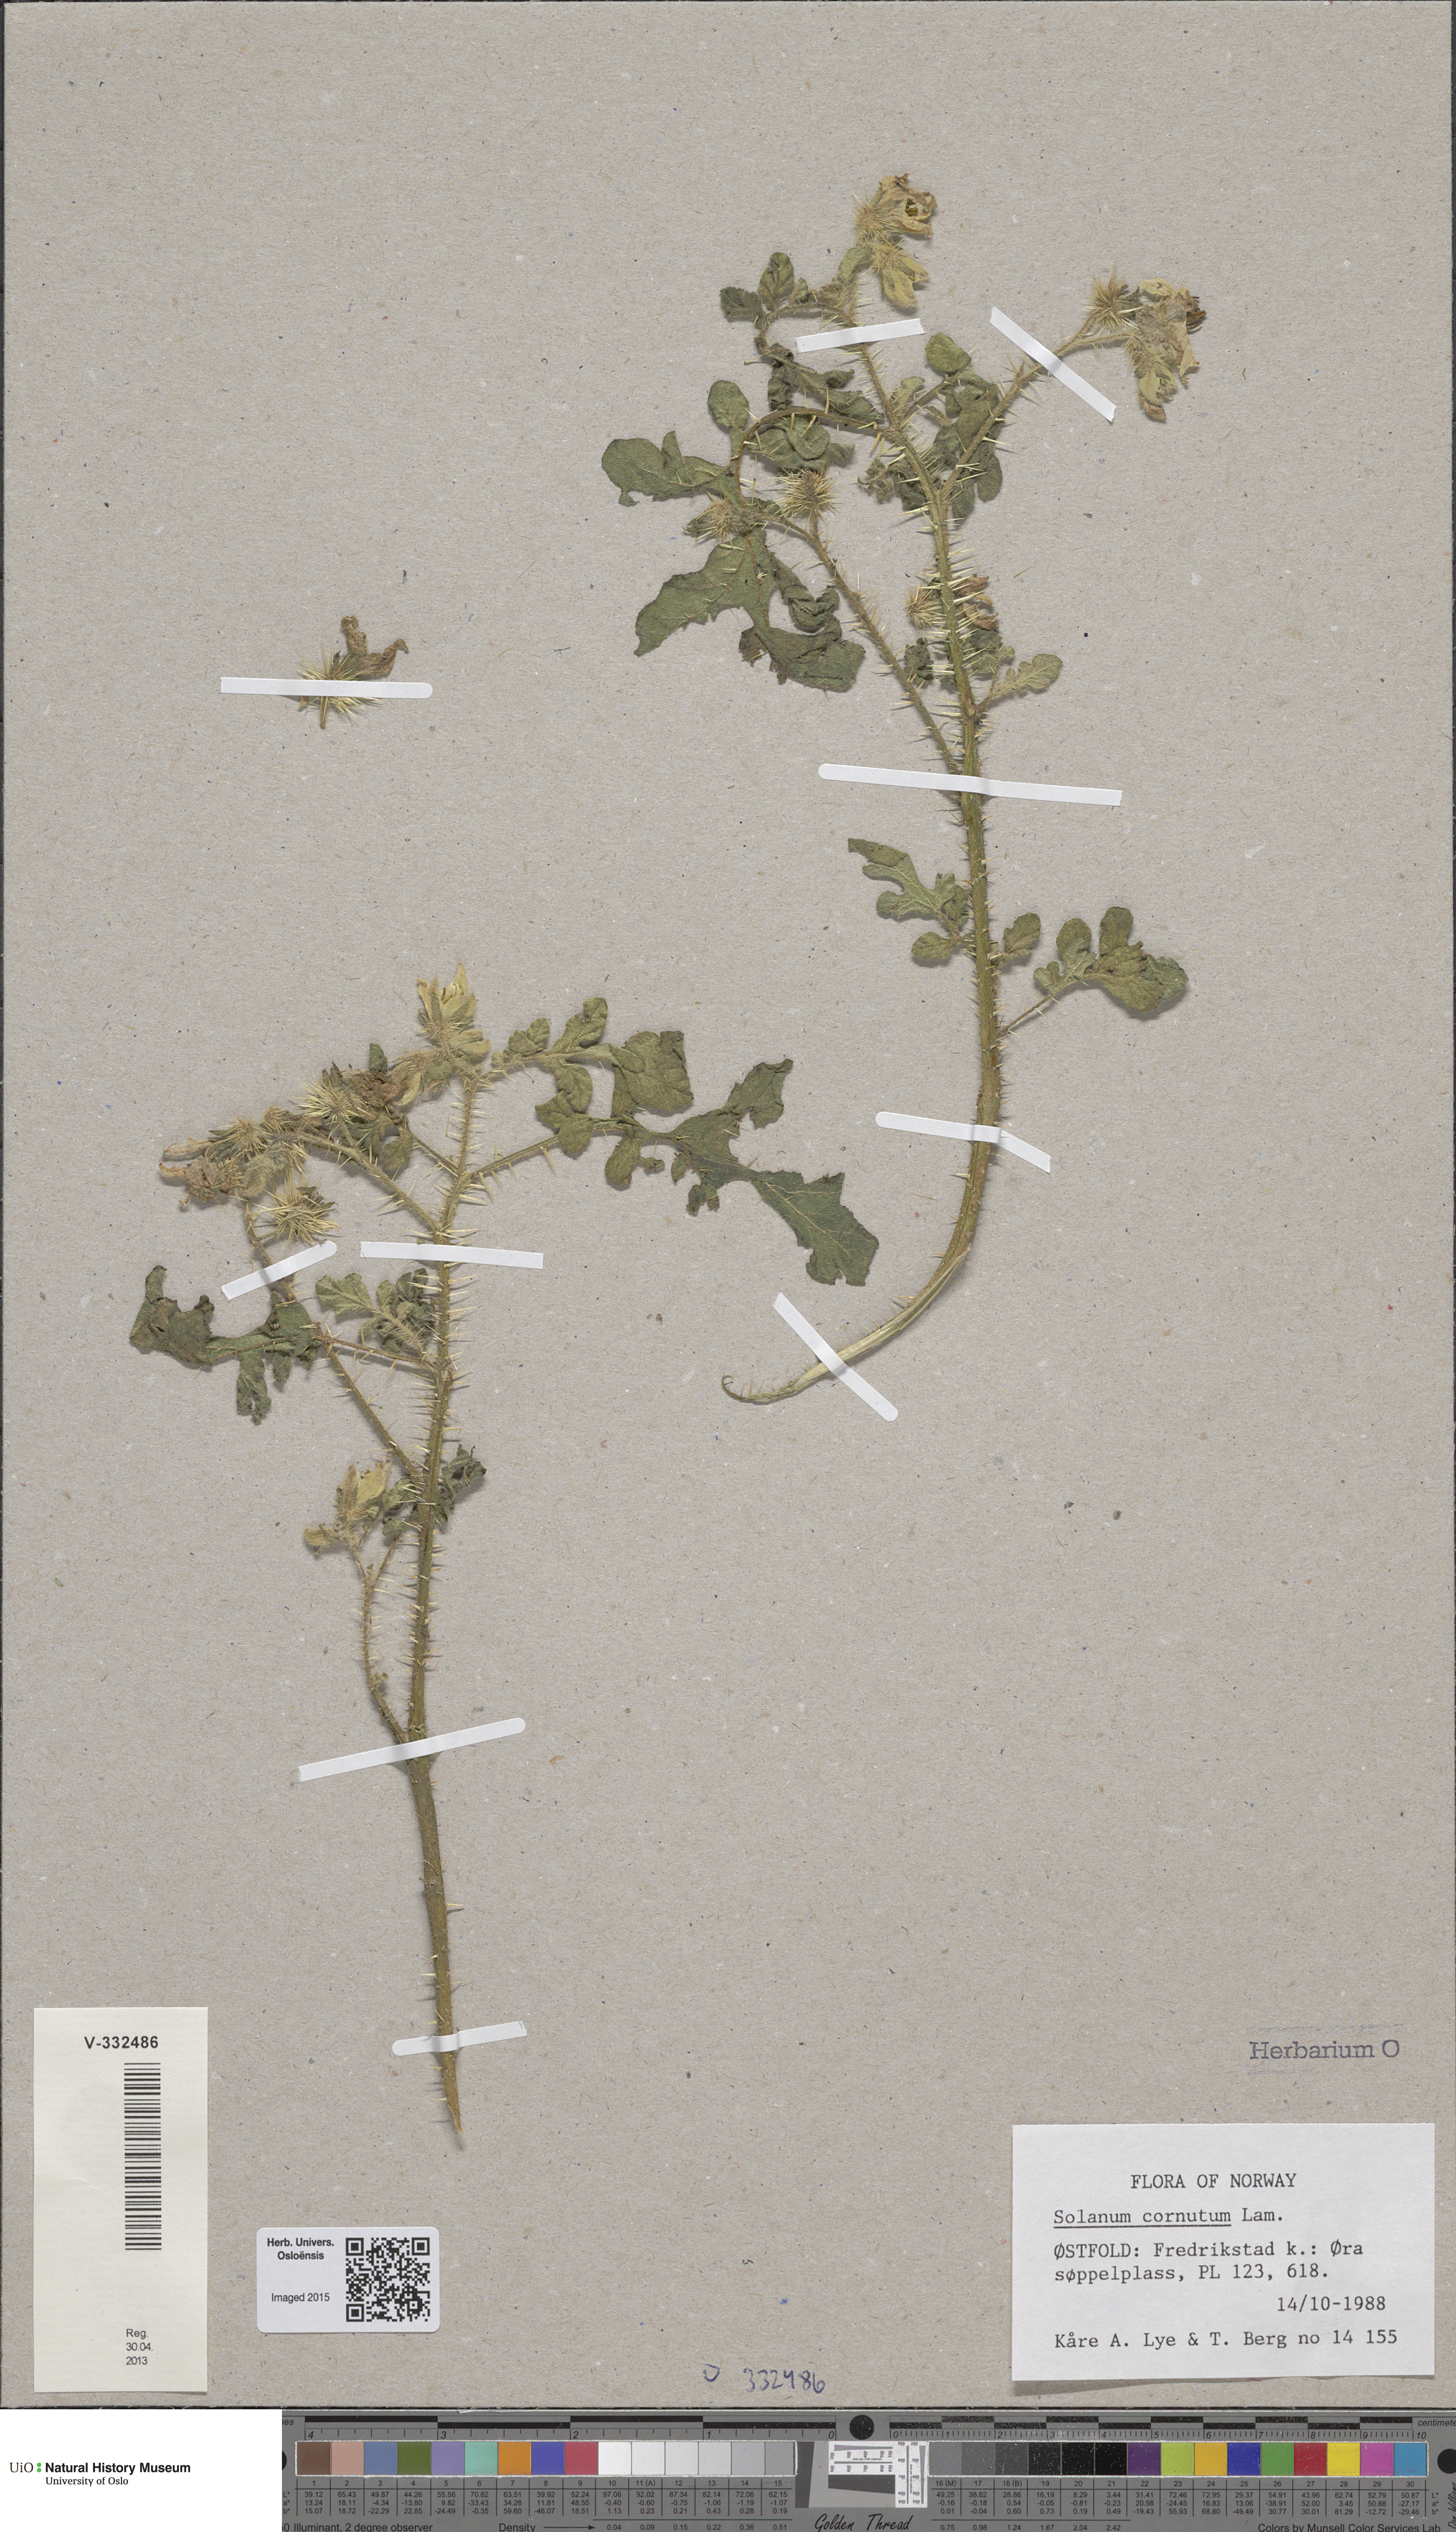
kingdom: Plantae
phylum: Tracheophyta
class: Magnoliopsida
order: Solanales
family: Solanaceae
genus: Solanum
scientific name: Solanum angustifolium
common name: Buffalobur nightshade
